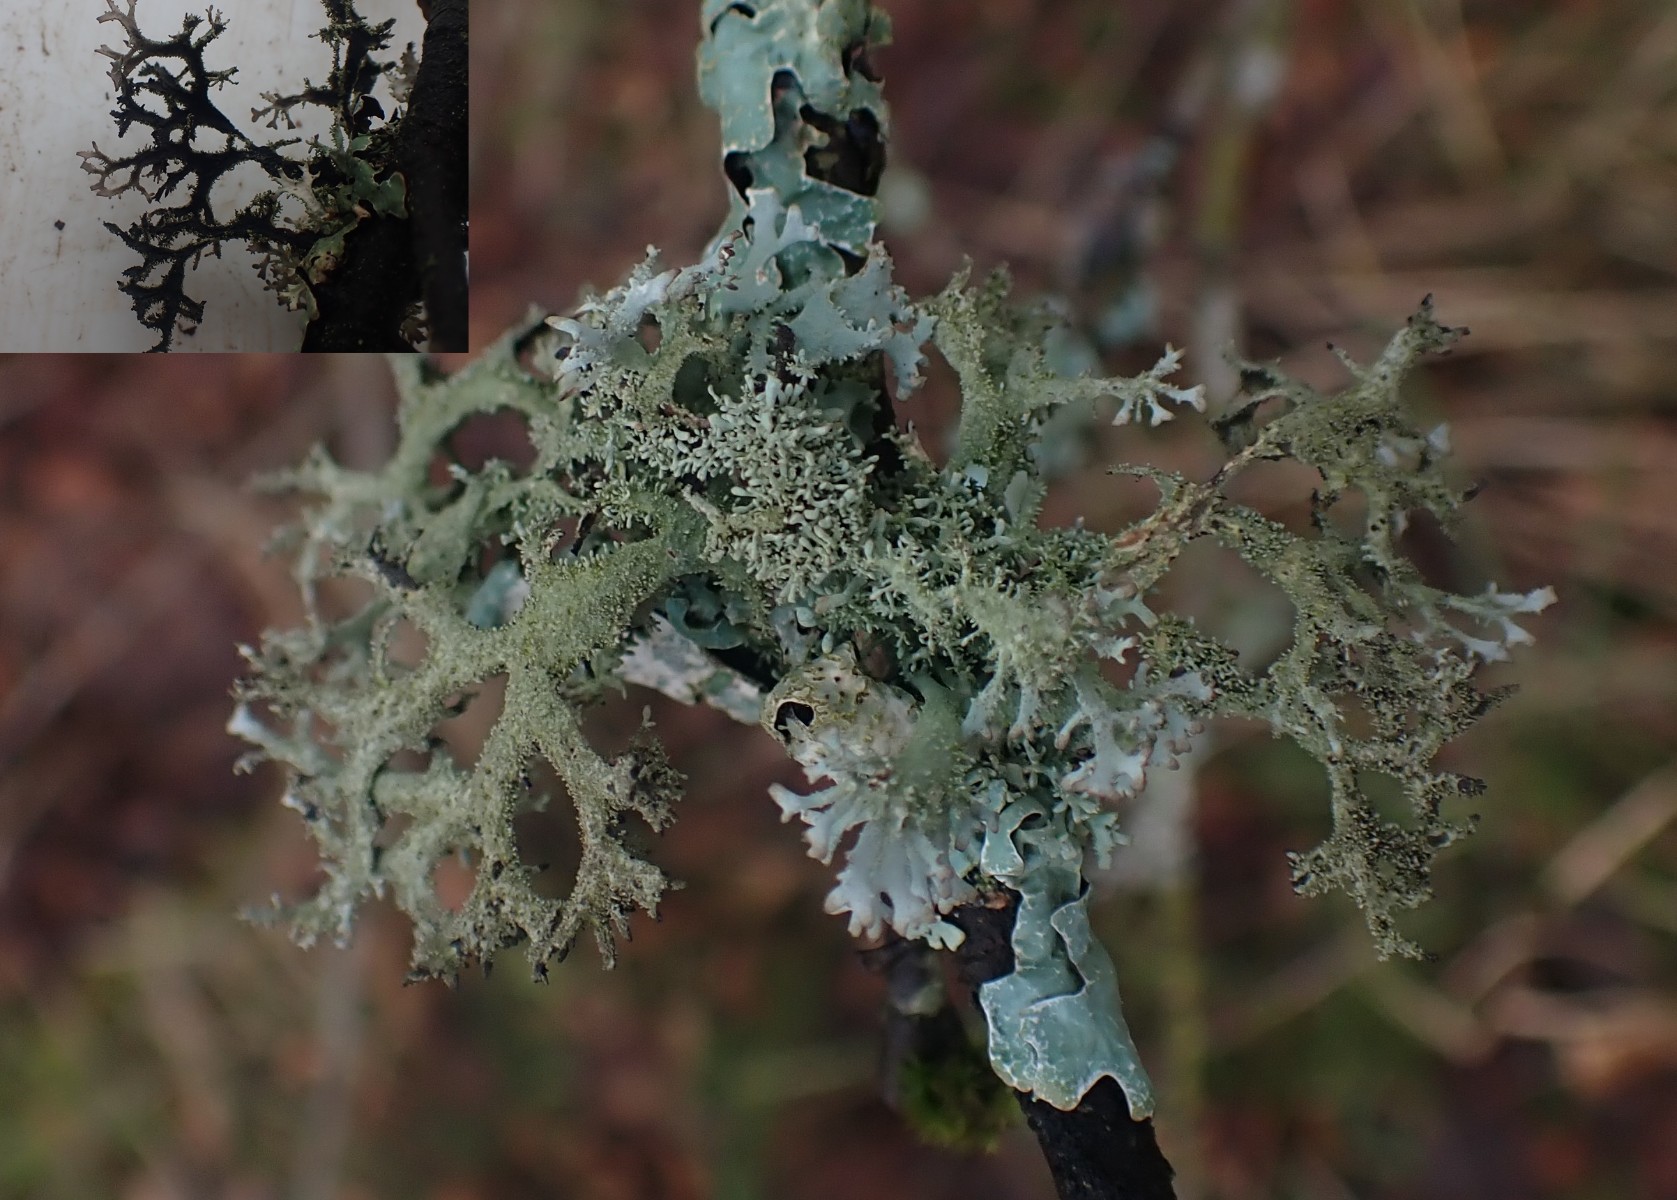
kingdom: Fungi
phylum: Ascomycota
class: Lecanoromycetes
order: Lecanorales
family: Parmeliaceae
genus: Pseudevernia
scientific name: Pseudevernia furfuracea
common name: grå fyrrelav
